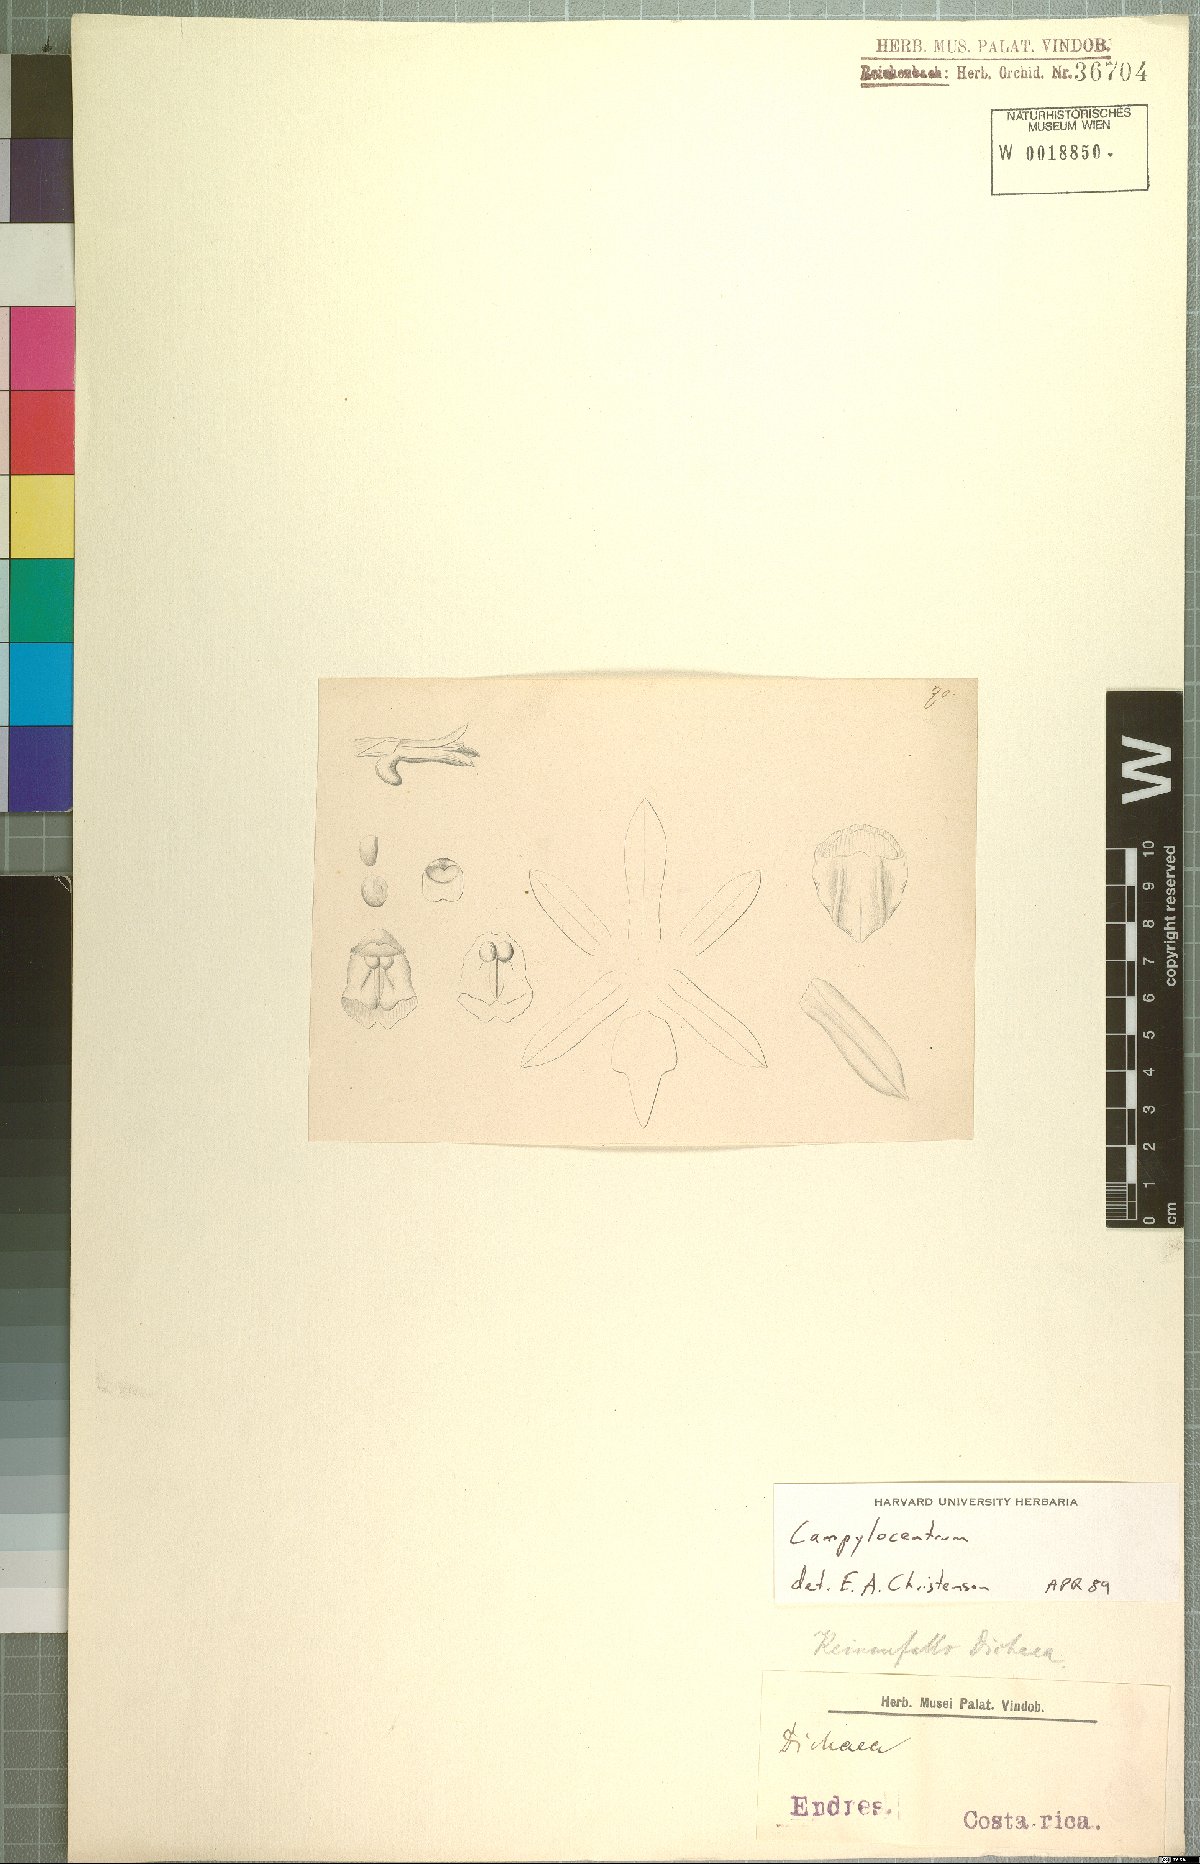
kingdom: Plantae
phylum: Tracheophyta
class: Liliopsida
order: Asparagales
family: Orchidaceae
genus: Campylocentrum
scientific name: Campylocentrum
